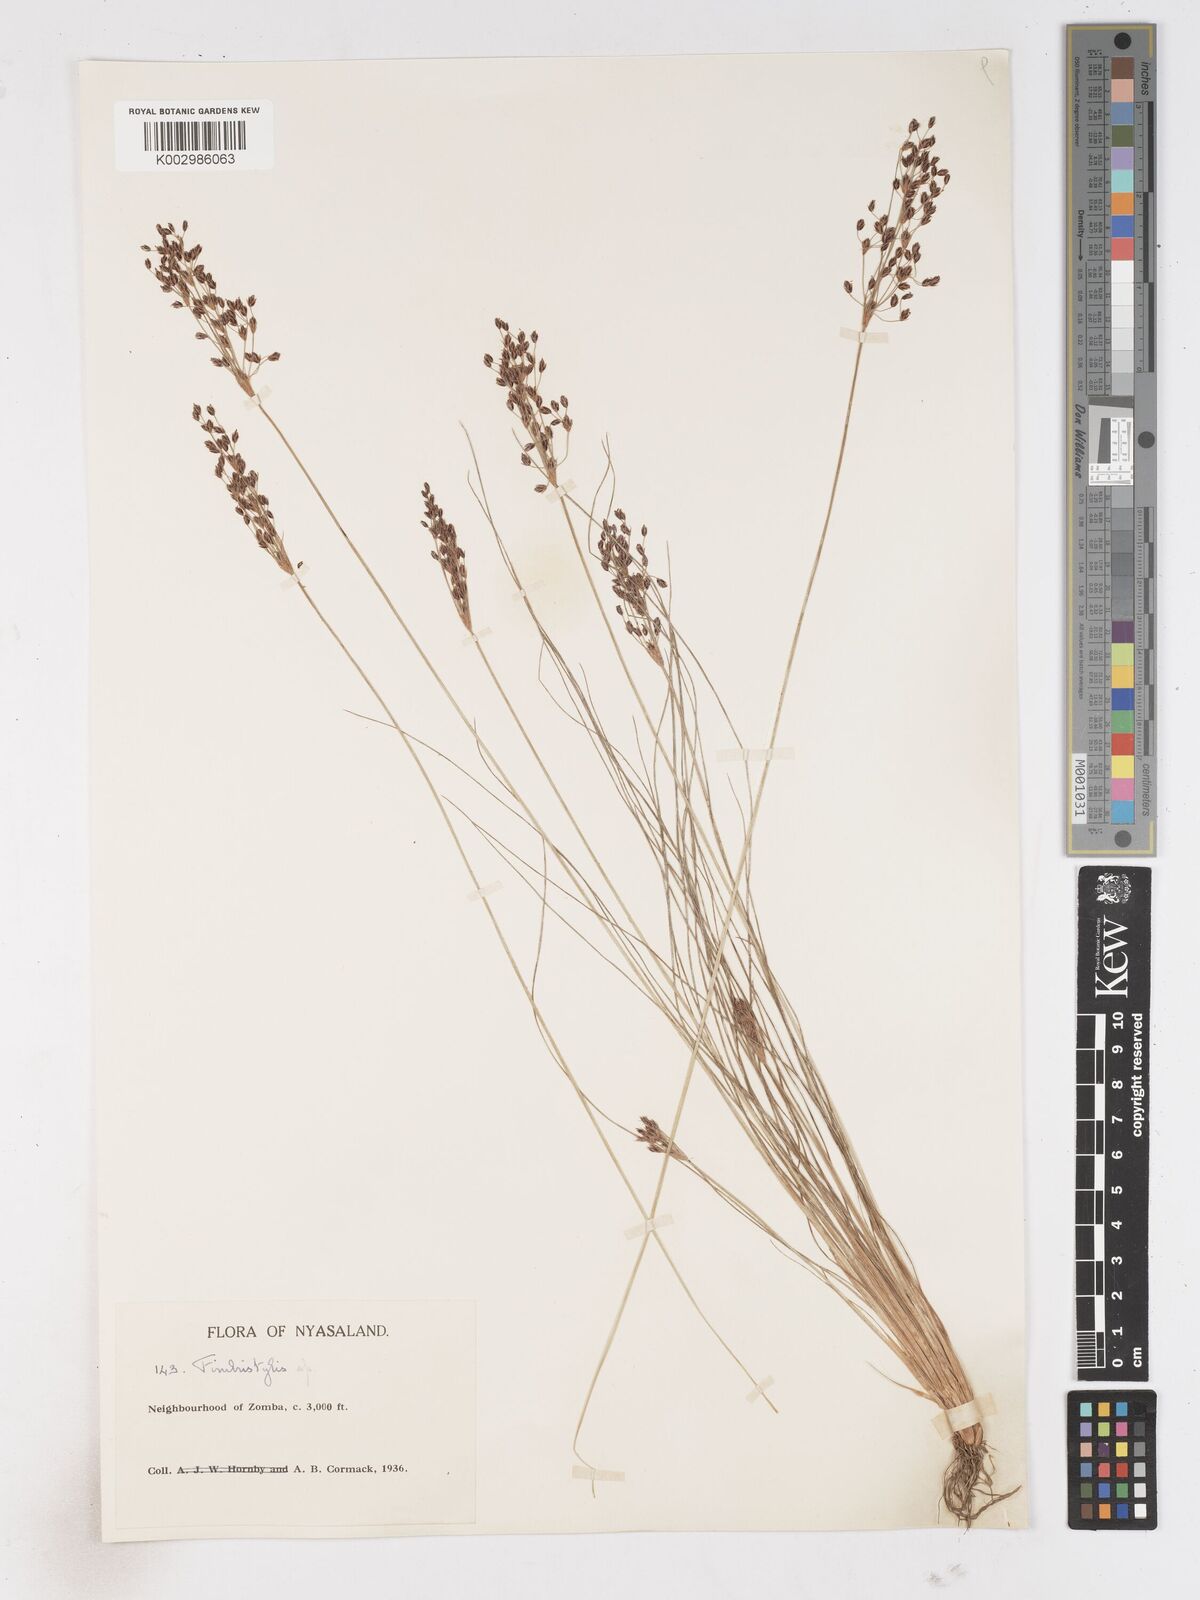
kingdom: Plantae
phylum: Tracheophyta
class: Liliopsida
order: Poales
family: Cyperaceae
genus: Fimbristylis
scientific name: Fimbristylis
